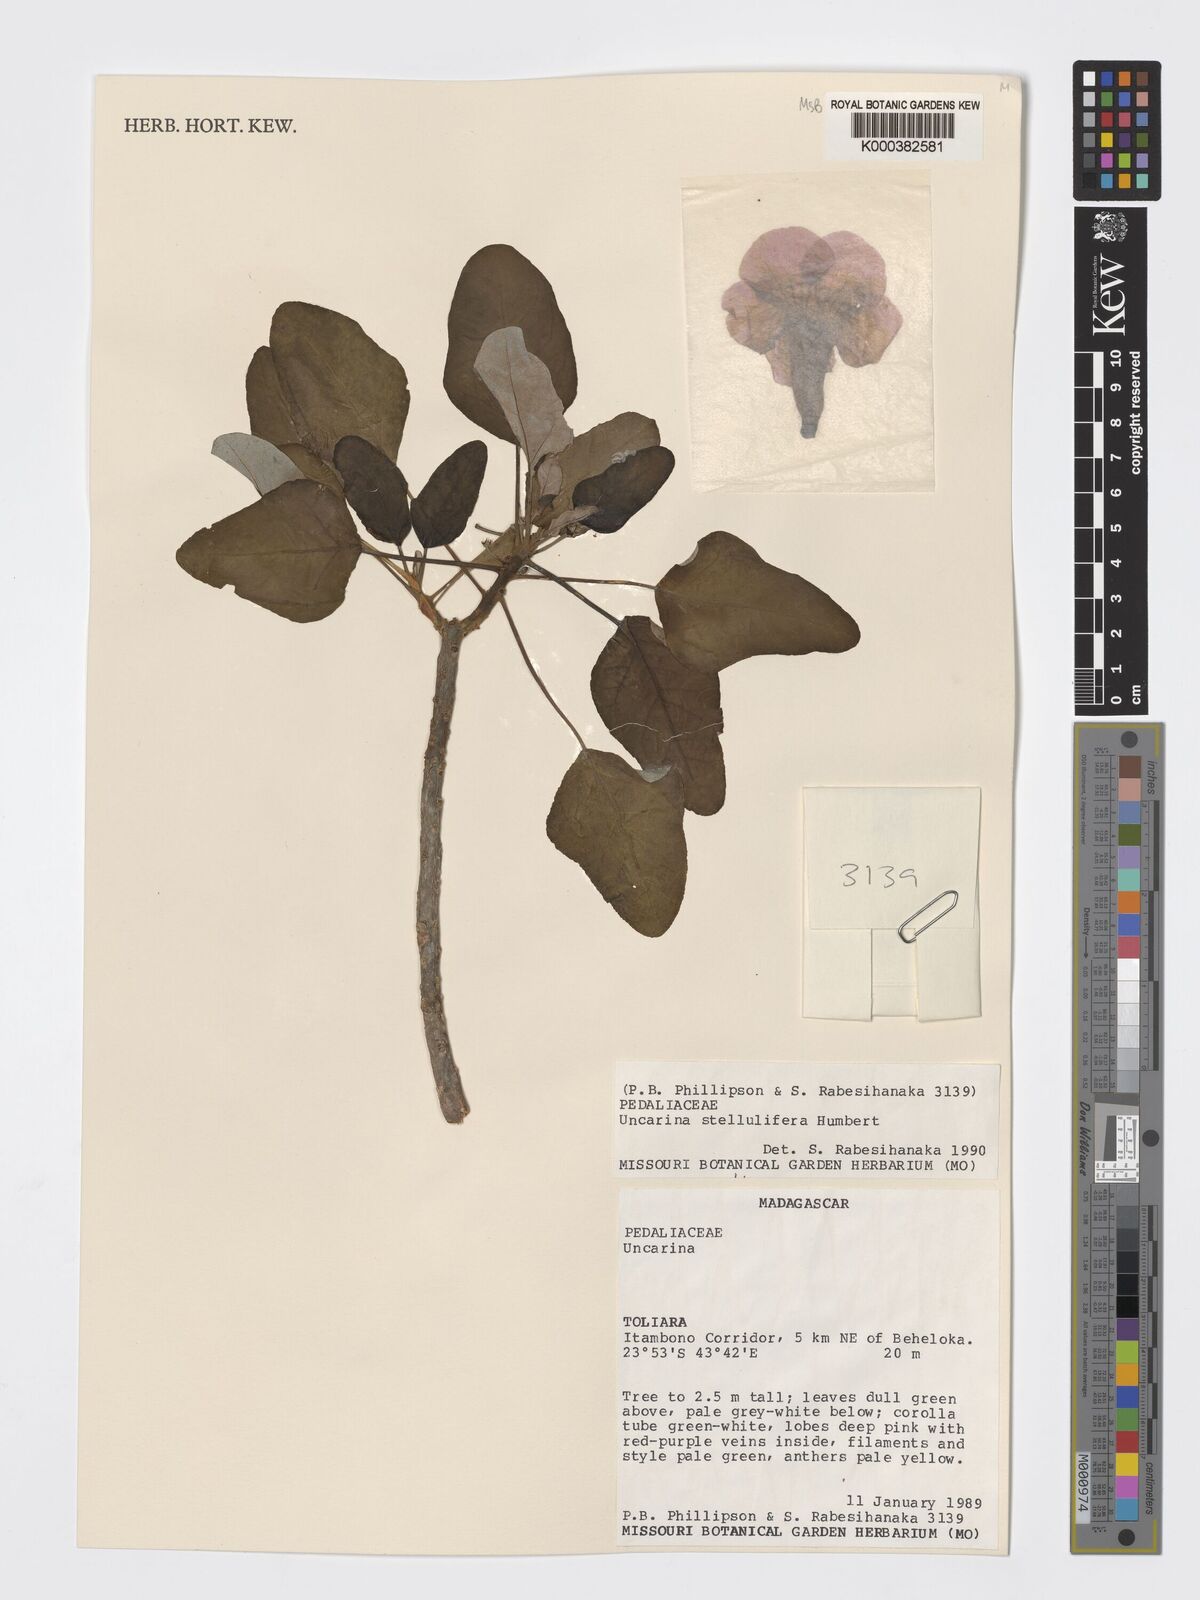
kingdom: Plantae
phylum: Tracheophyta
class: Magnoliopsida
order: Lamiales
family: Pedaliaceae
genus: Uncarina
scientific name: Uncarina stellulifera
